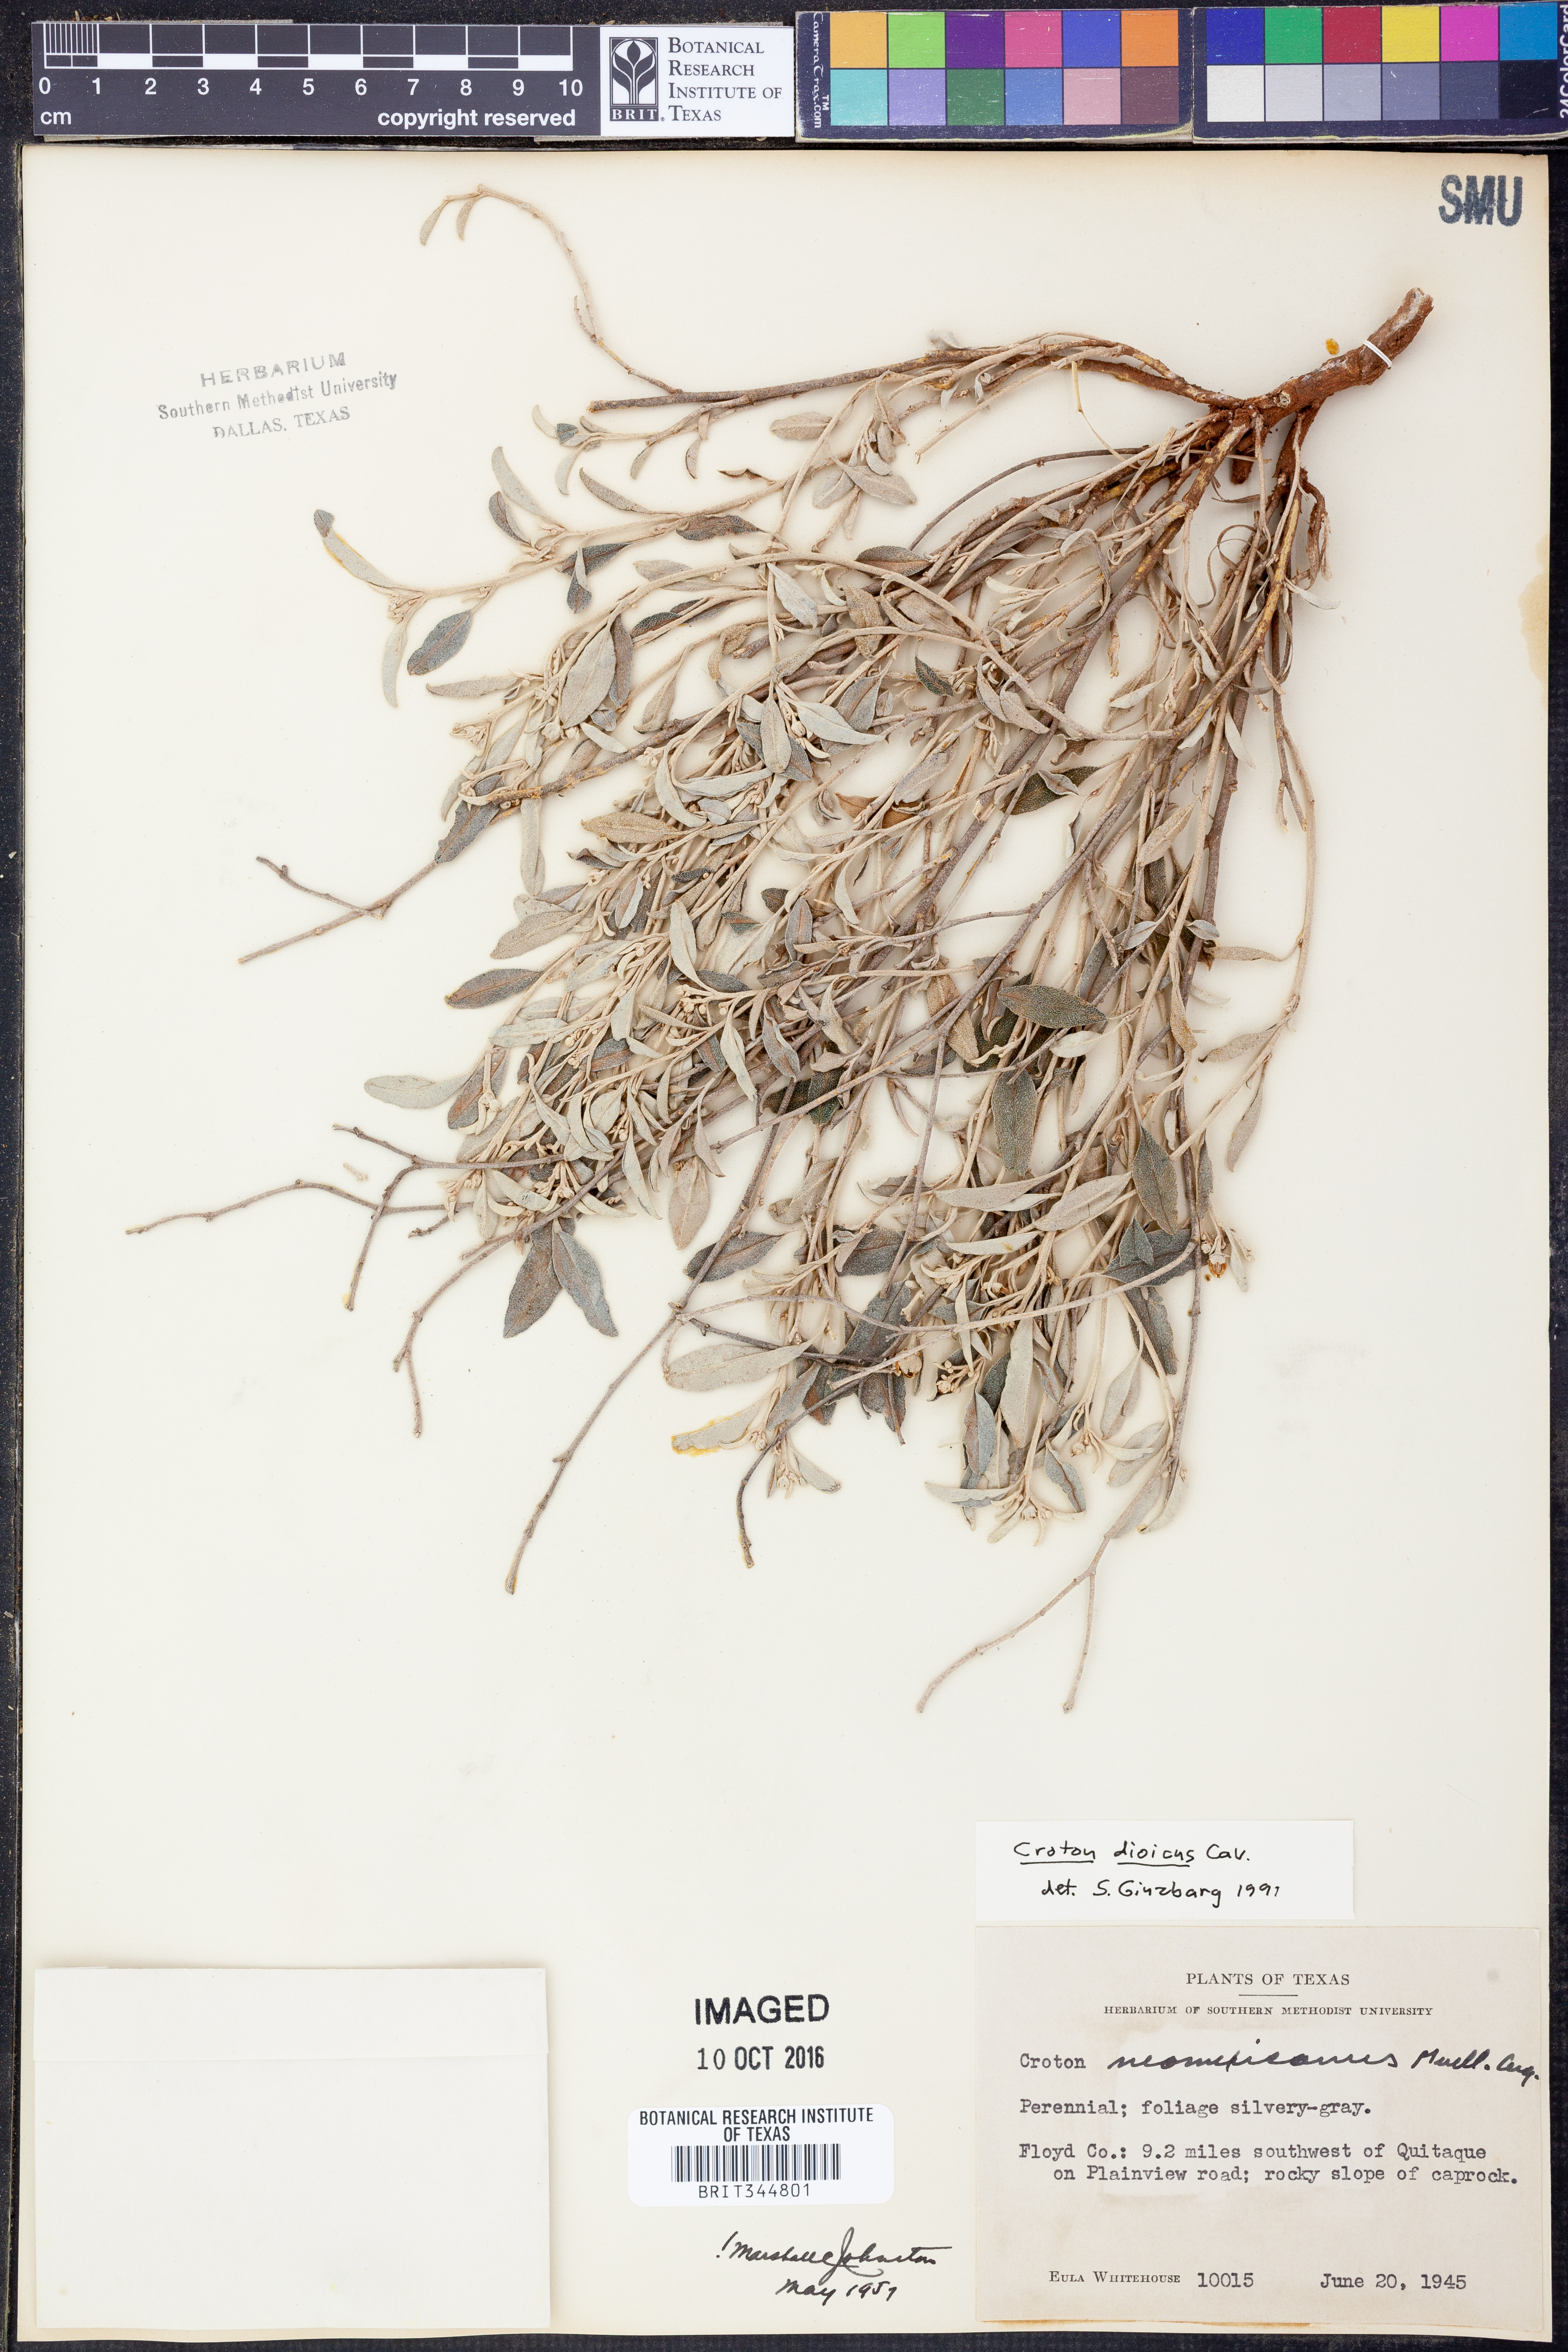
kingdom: Plantae
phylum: Tracheophyta
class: Magnoliopsida
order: Malpighiales
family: Euphorbiaceae
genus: Croton
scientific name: Croton dioicus
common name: Grassland croton
